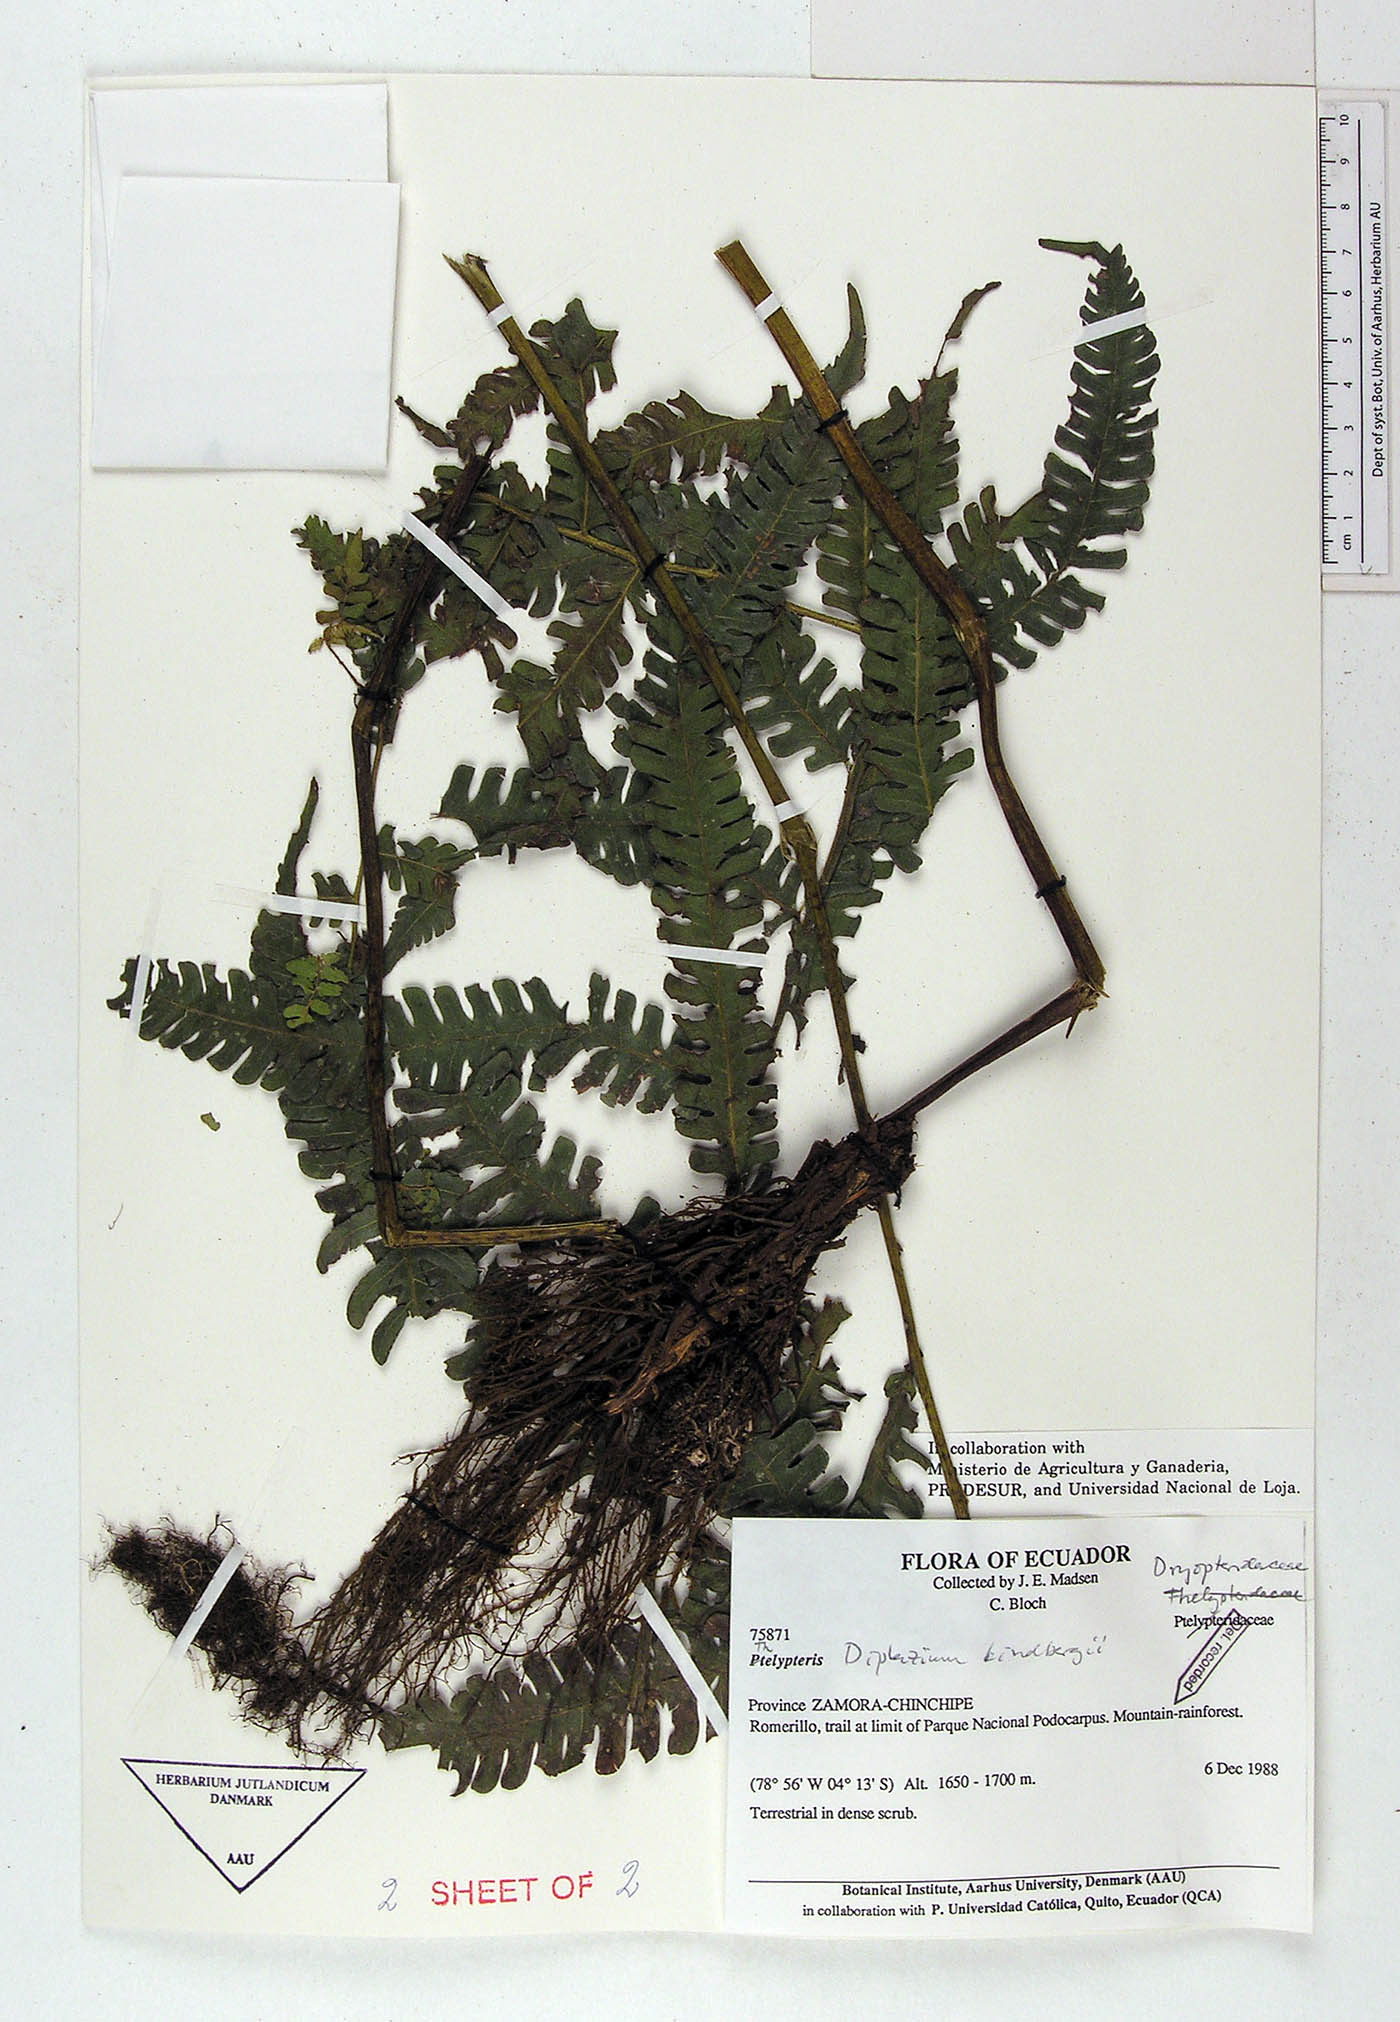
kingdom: Plantae
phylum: Tracheophyta
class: Polypodiopsida
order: Polypodiales
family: Athyriaceae
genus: Diplazium
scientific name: Diplazium lindbergii
